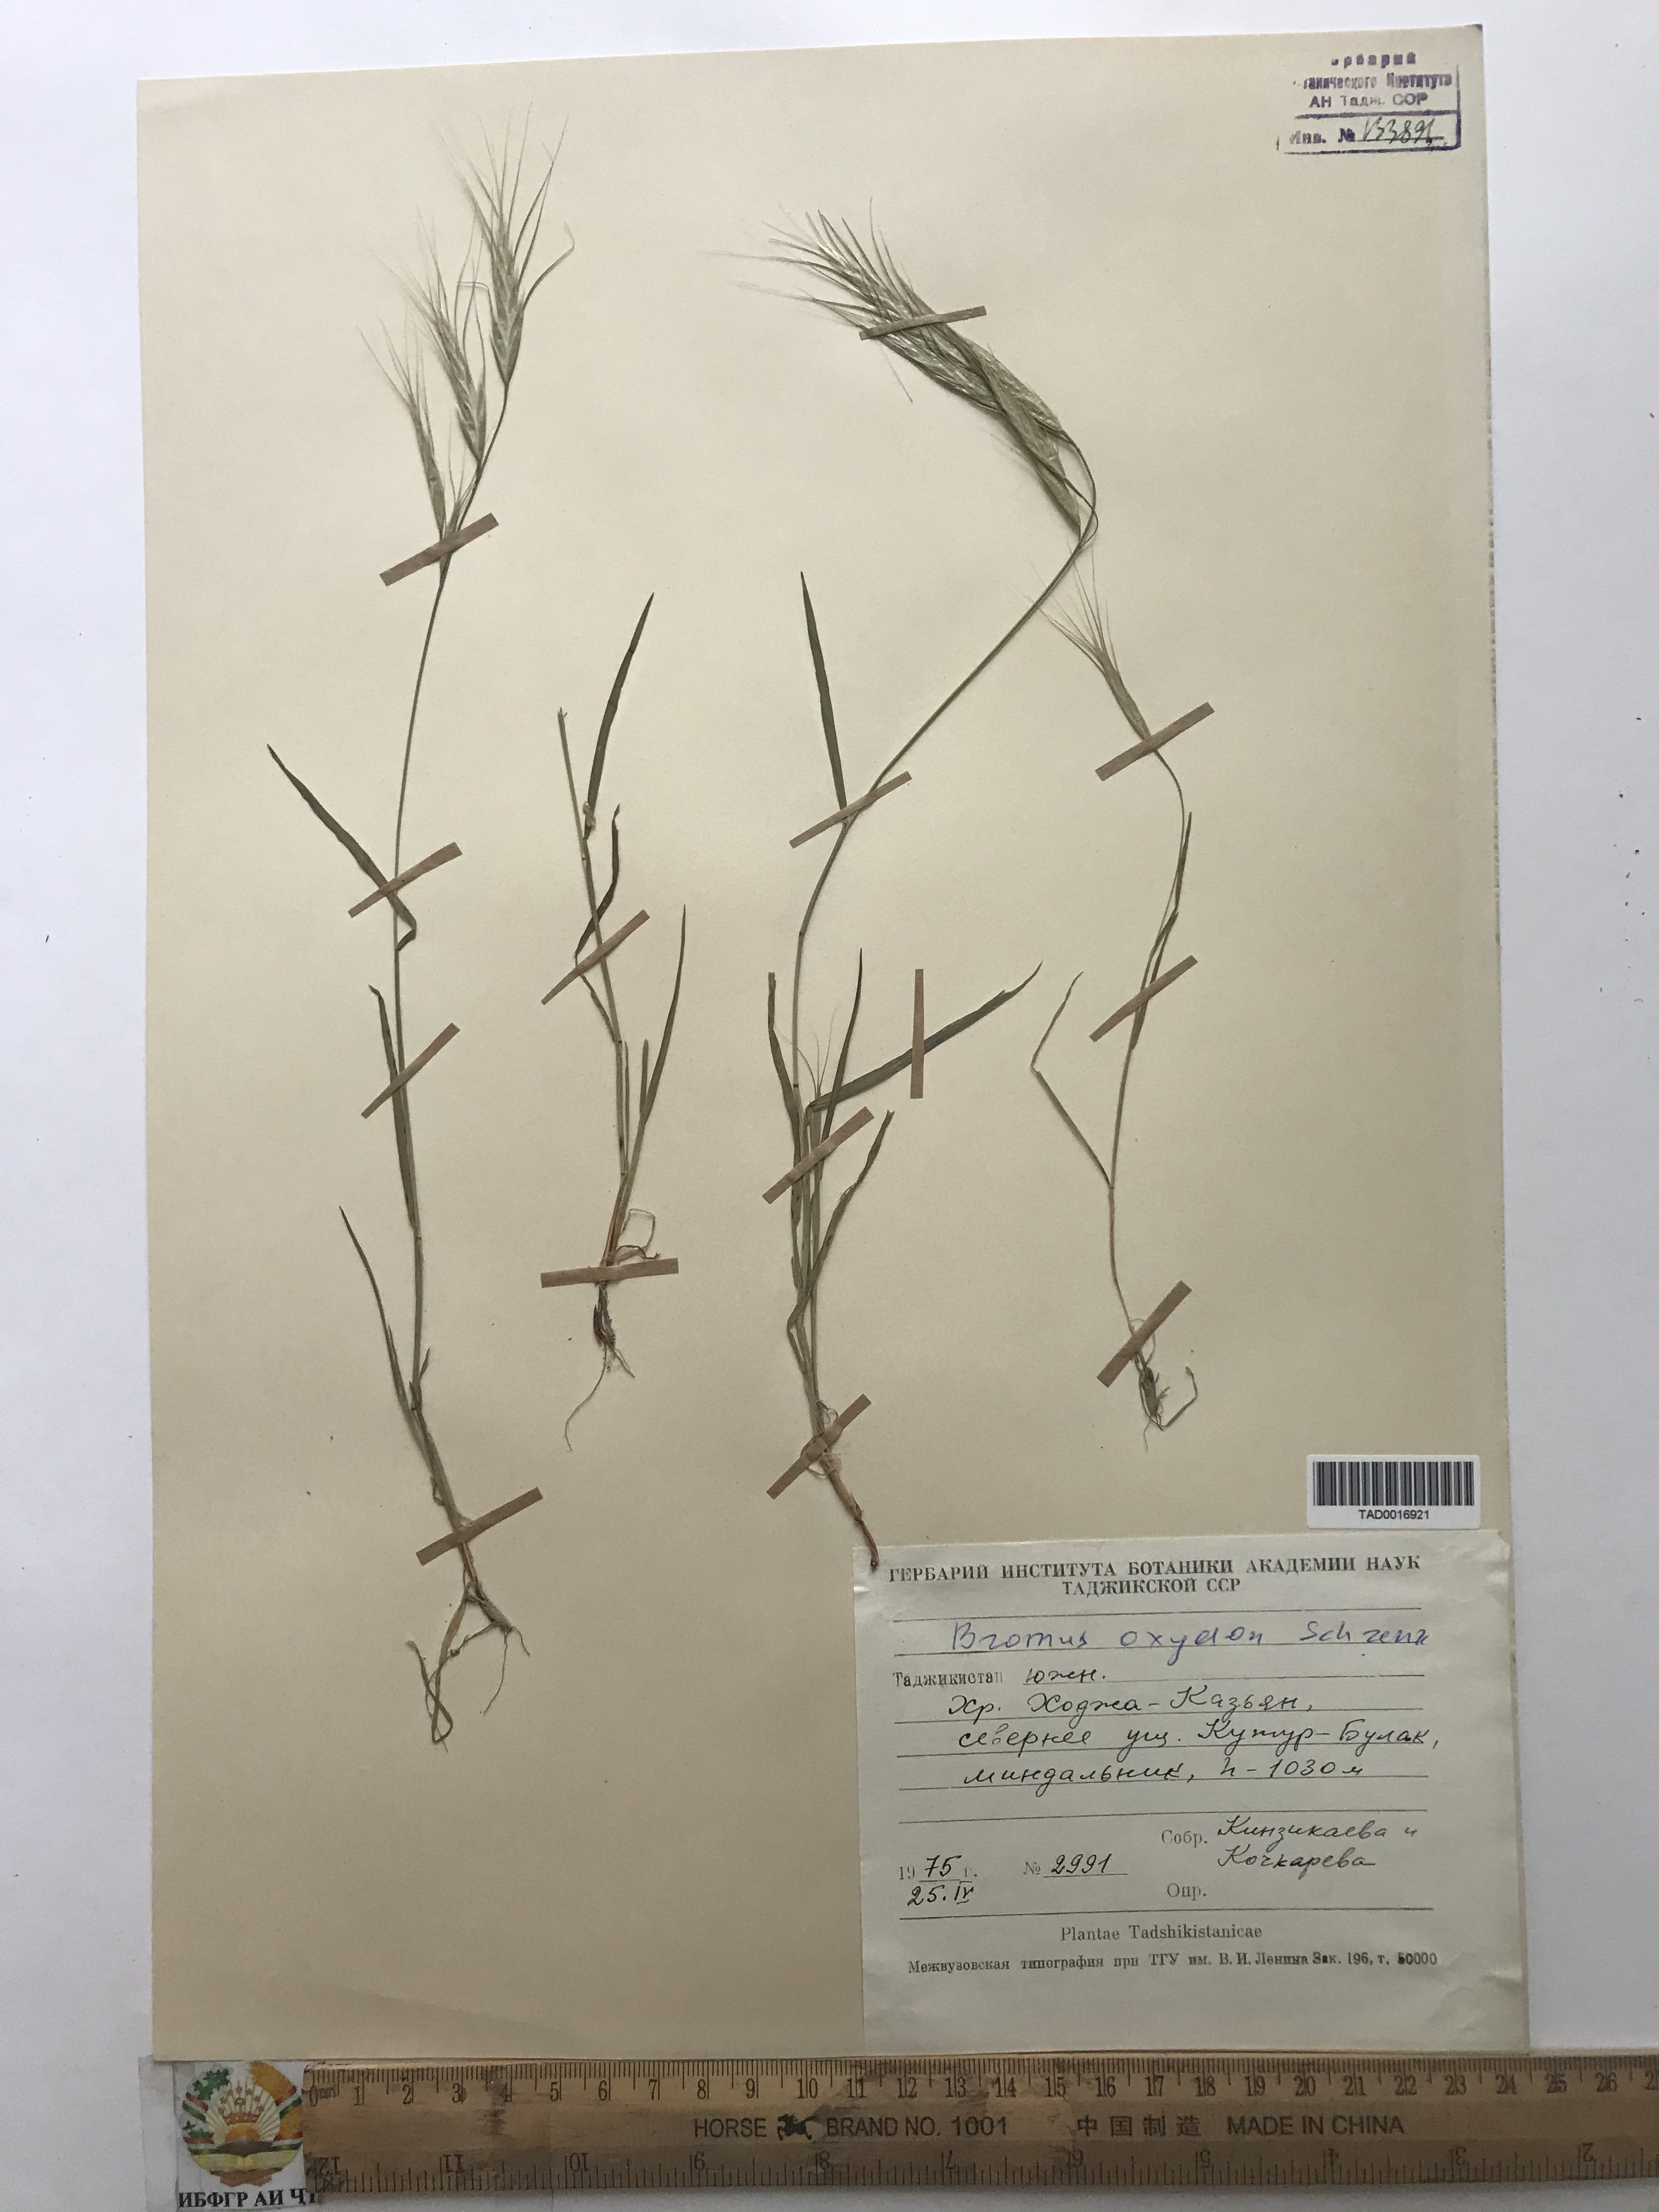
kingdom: Plantae
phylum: Tracheophyta
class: Liliopsida
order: Poales
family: Poaceae
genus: Bromus
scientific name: Bromus oxyodon
